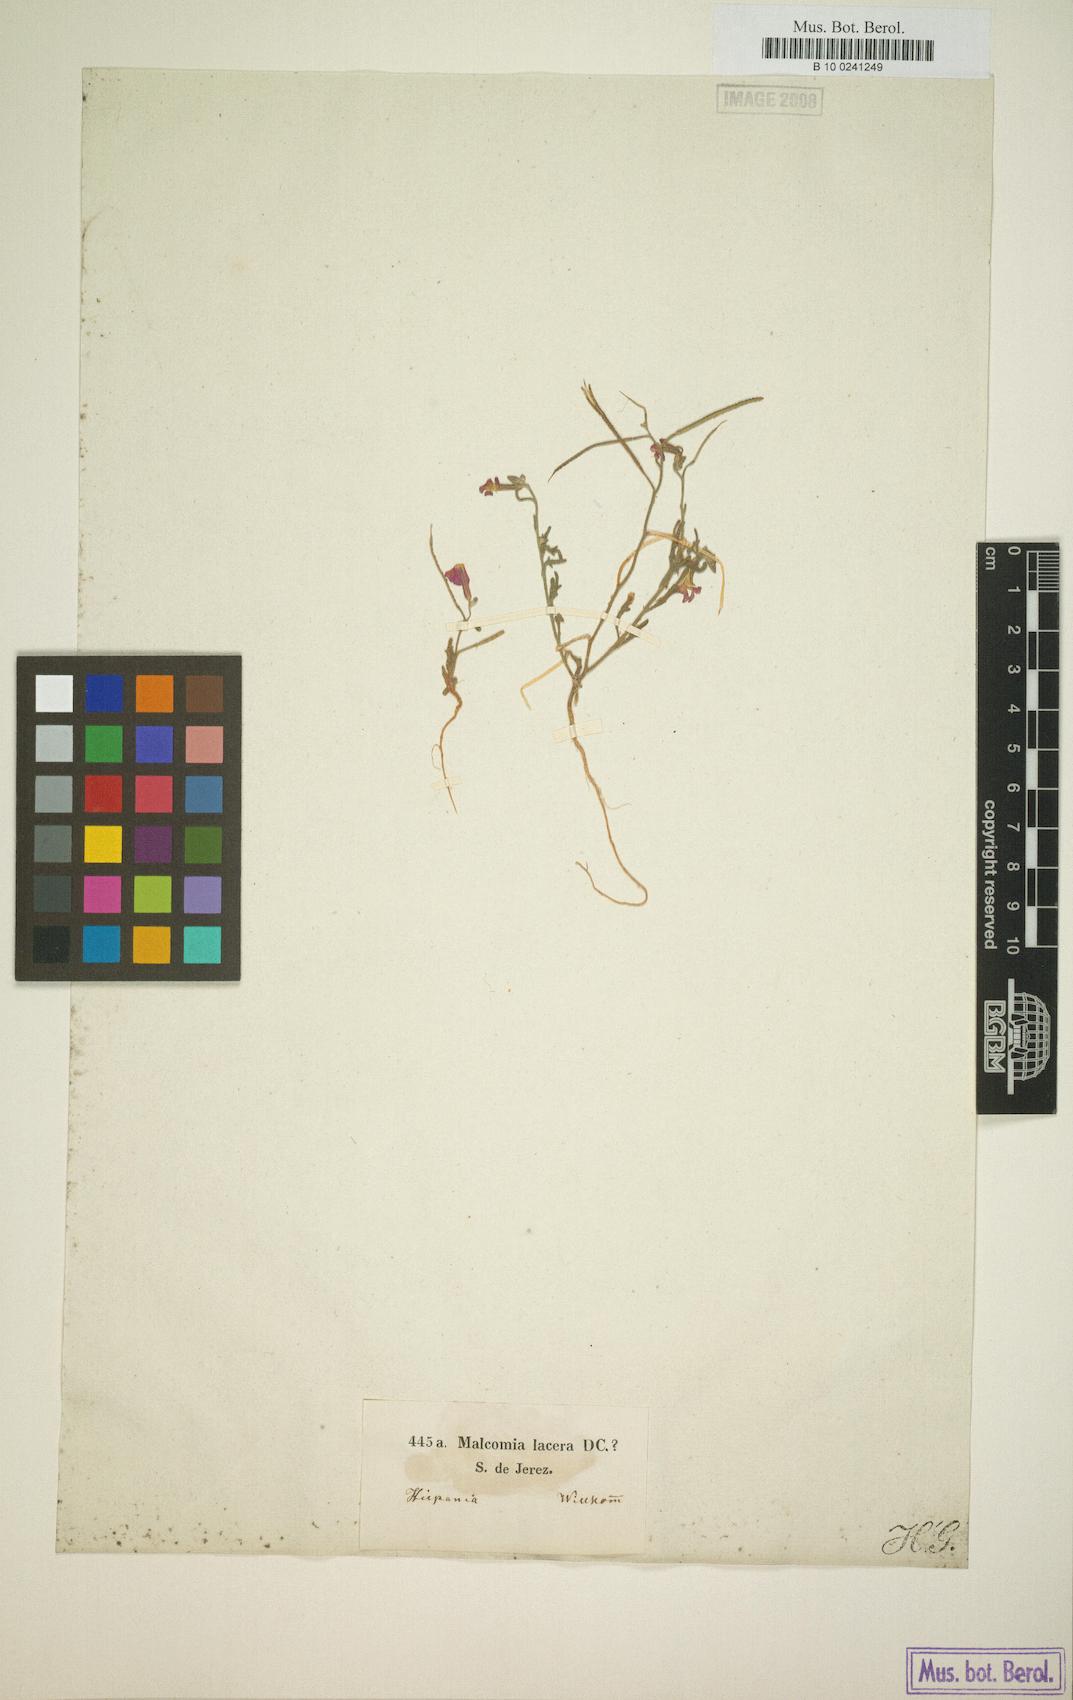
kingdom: Plantae
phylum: Tracheophyta
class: Magnoliopsida
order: Brassicales
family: Brassicaceae
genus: Raphanus
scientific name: Raphanus raphanistrum
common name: Wild radish
